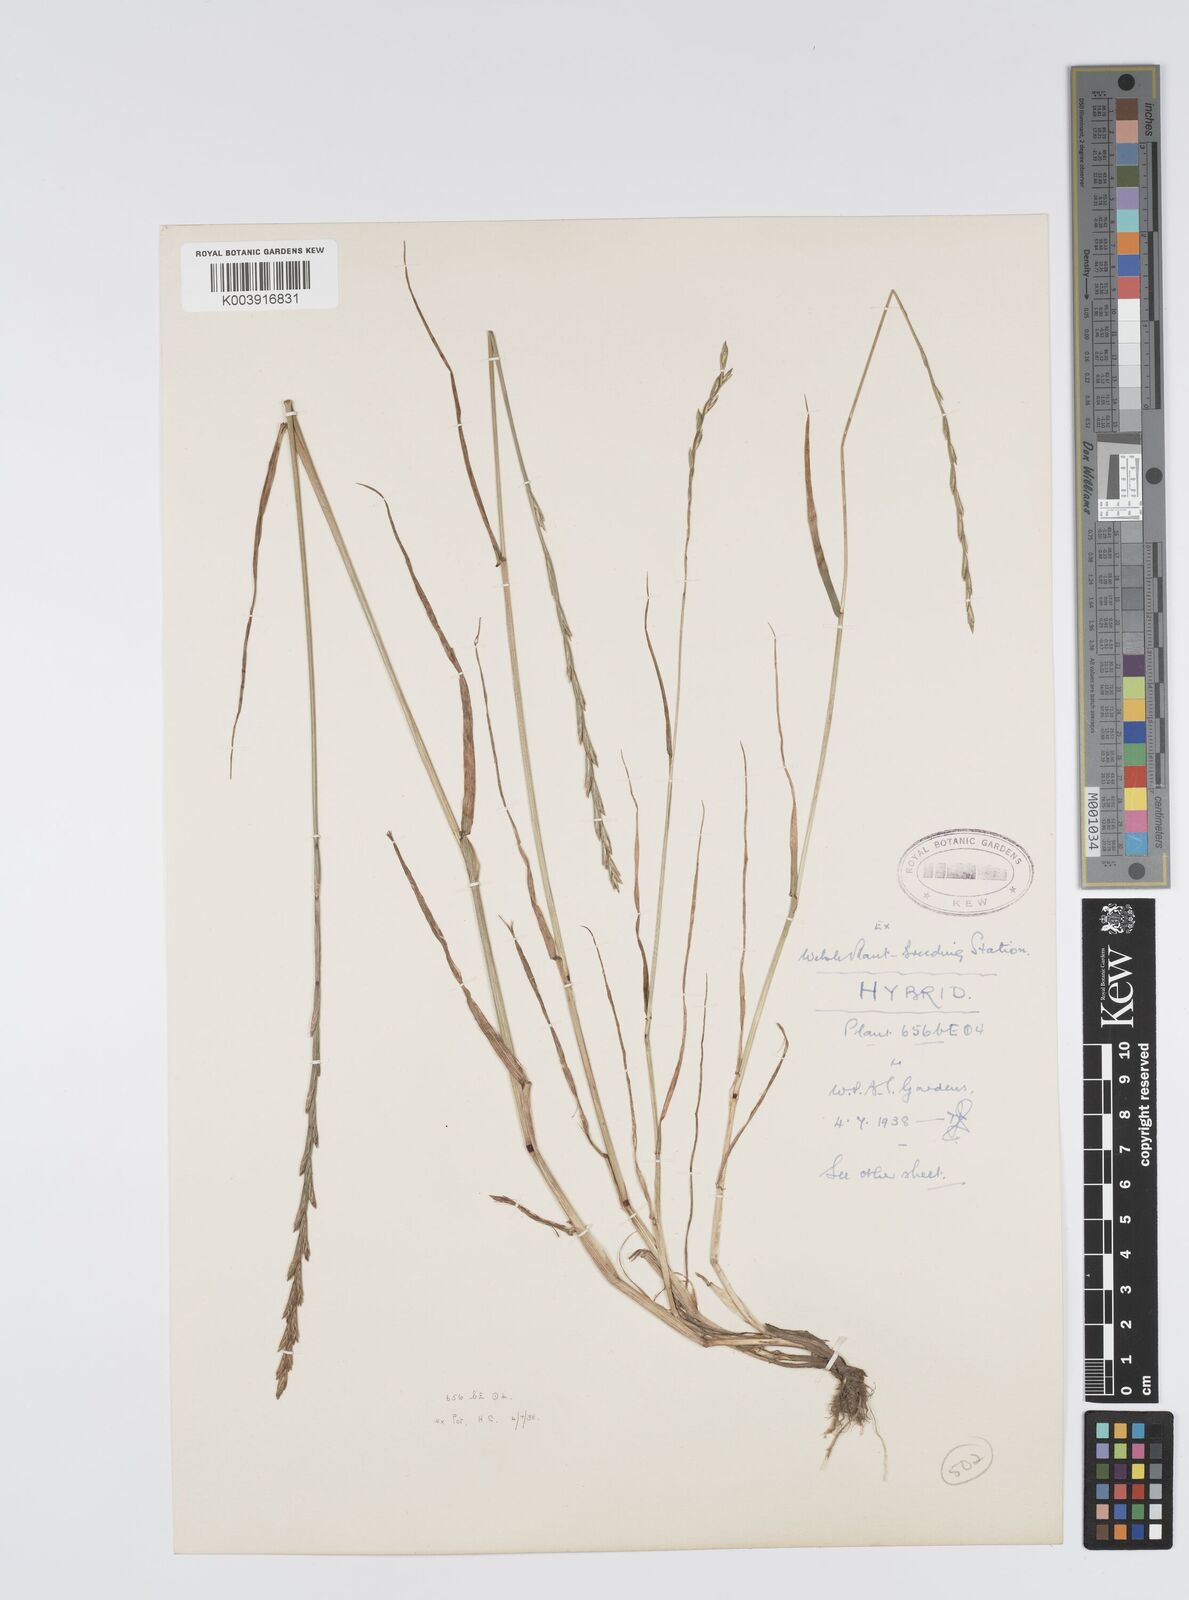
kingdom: Plantae
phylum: Tracheophyta
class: Liliopsida
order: Poales
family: Poaceae
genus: Lolium
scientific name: Lolium perenne
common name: Perennial ryegrass
